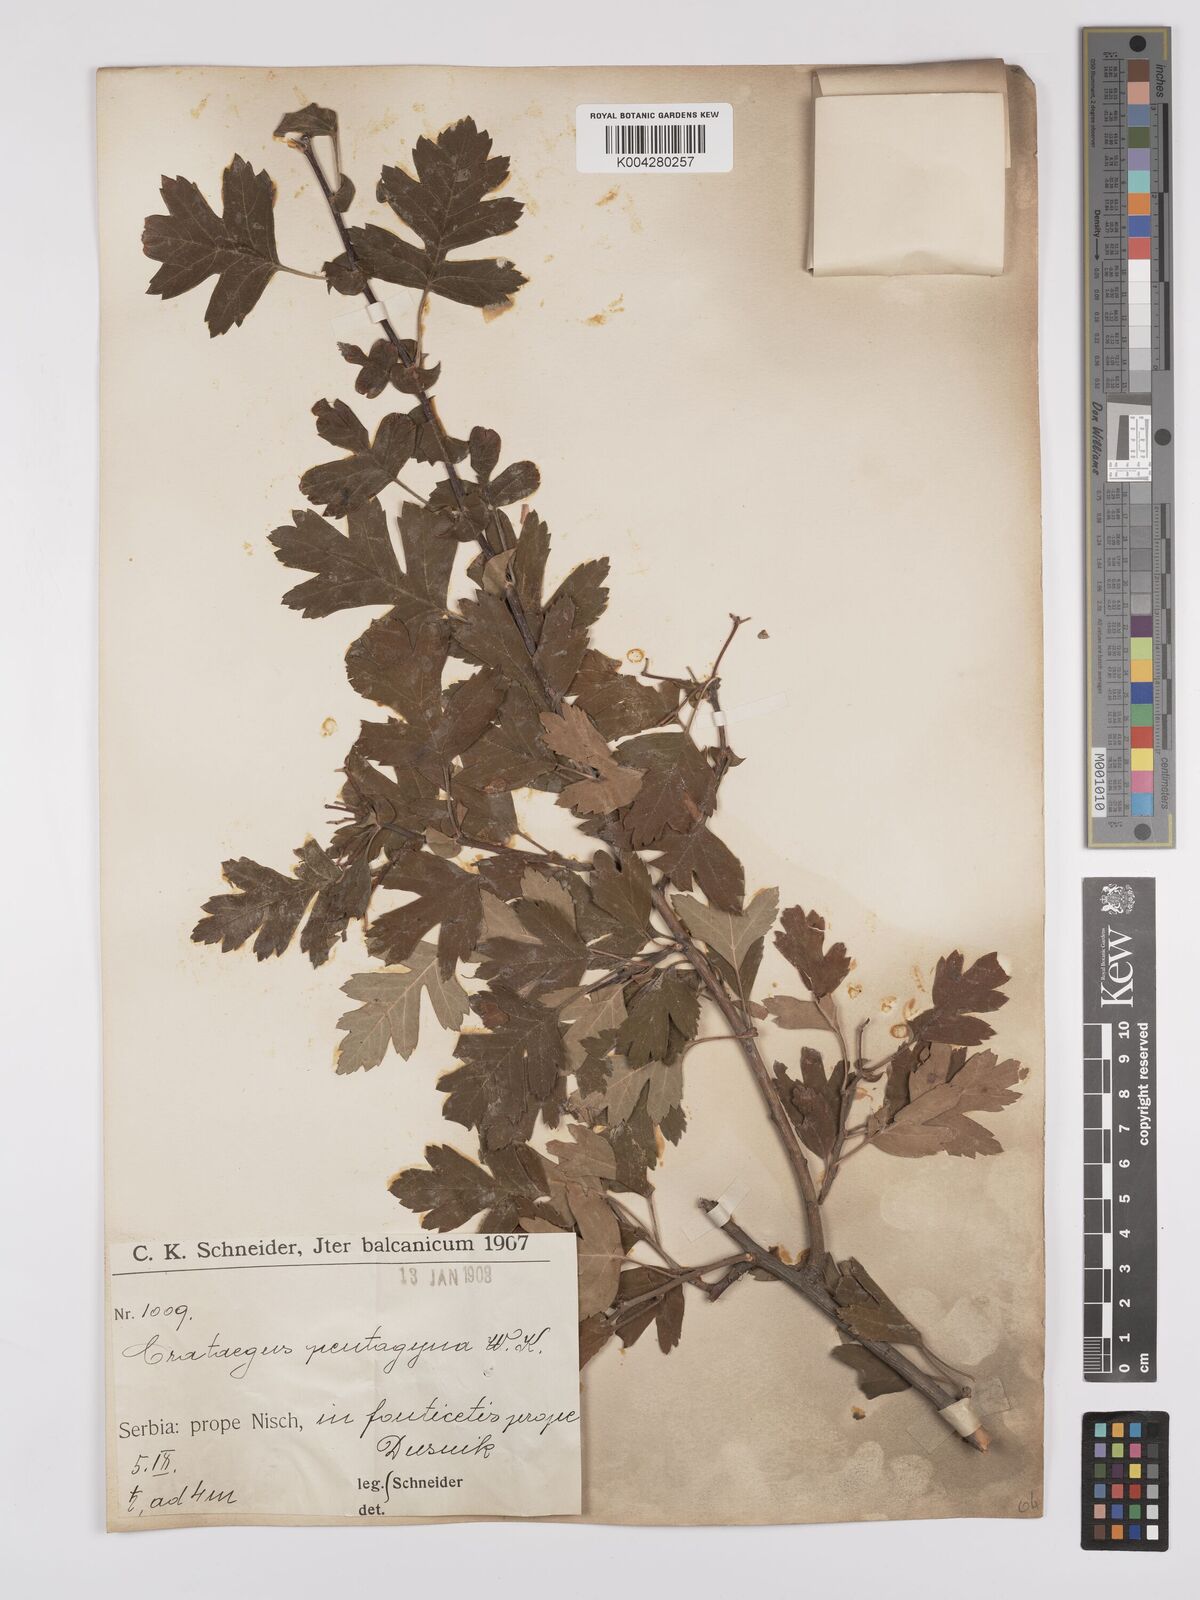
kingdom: Plantae
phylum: Tracheophyta
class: Magnoliopsida
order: Rosales
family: Rosaceae
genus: Crataegus
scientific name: Crataegus pentagyna
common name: Small-flowered black hawthorn
